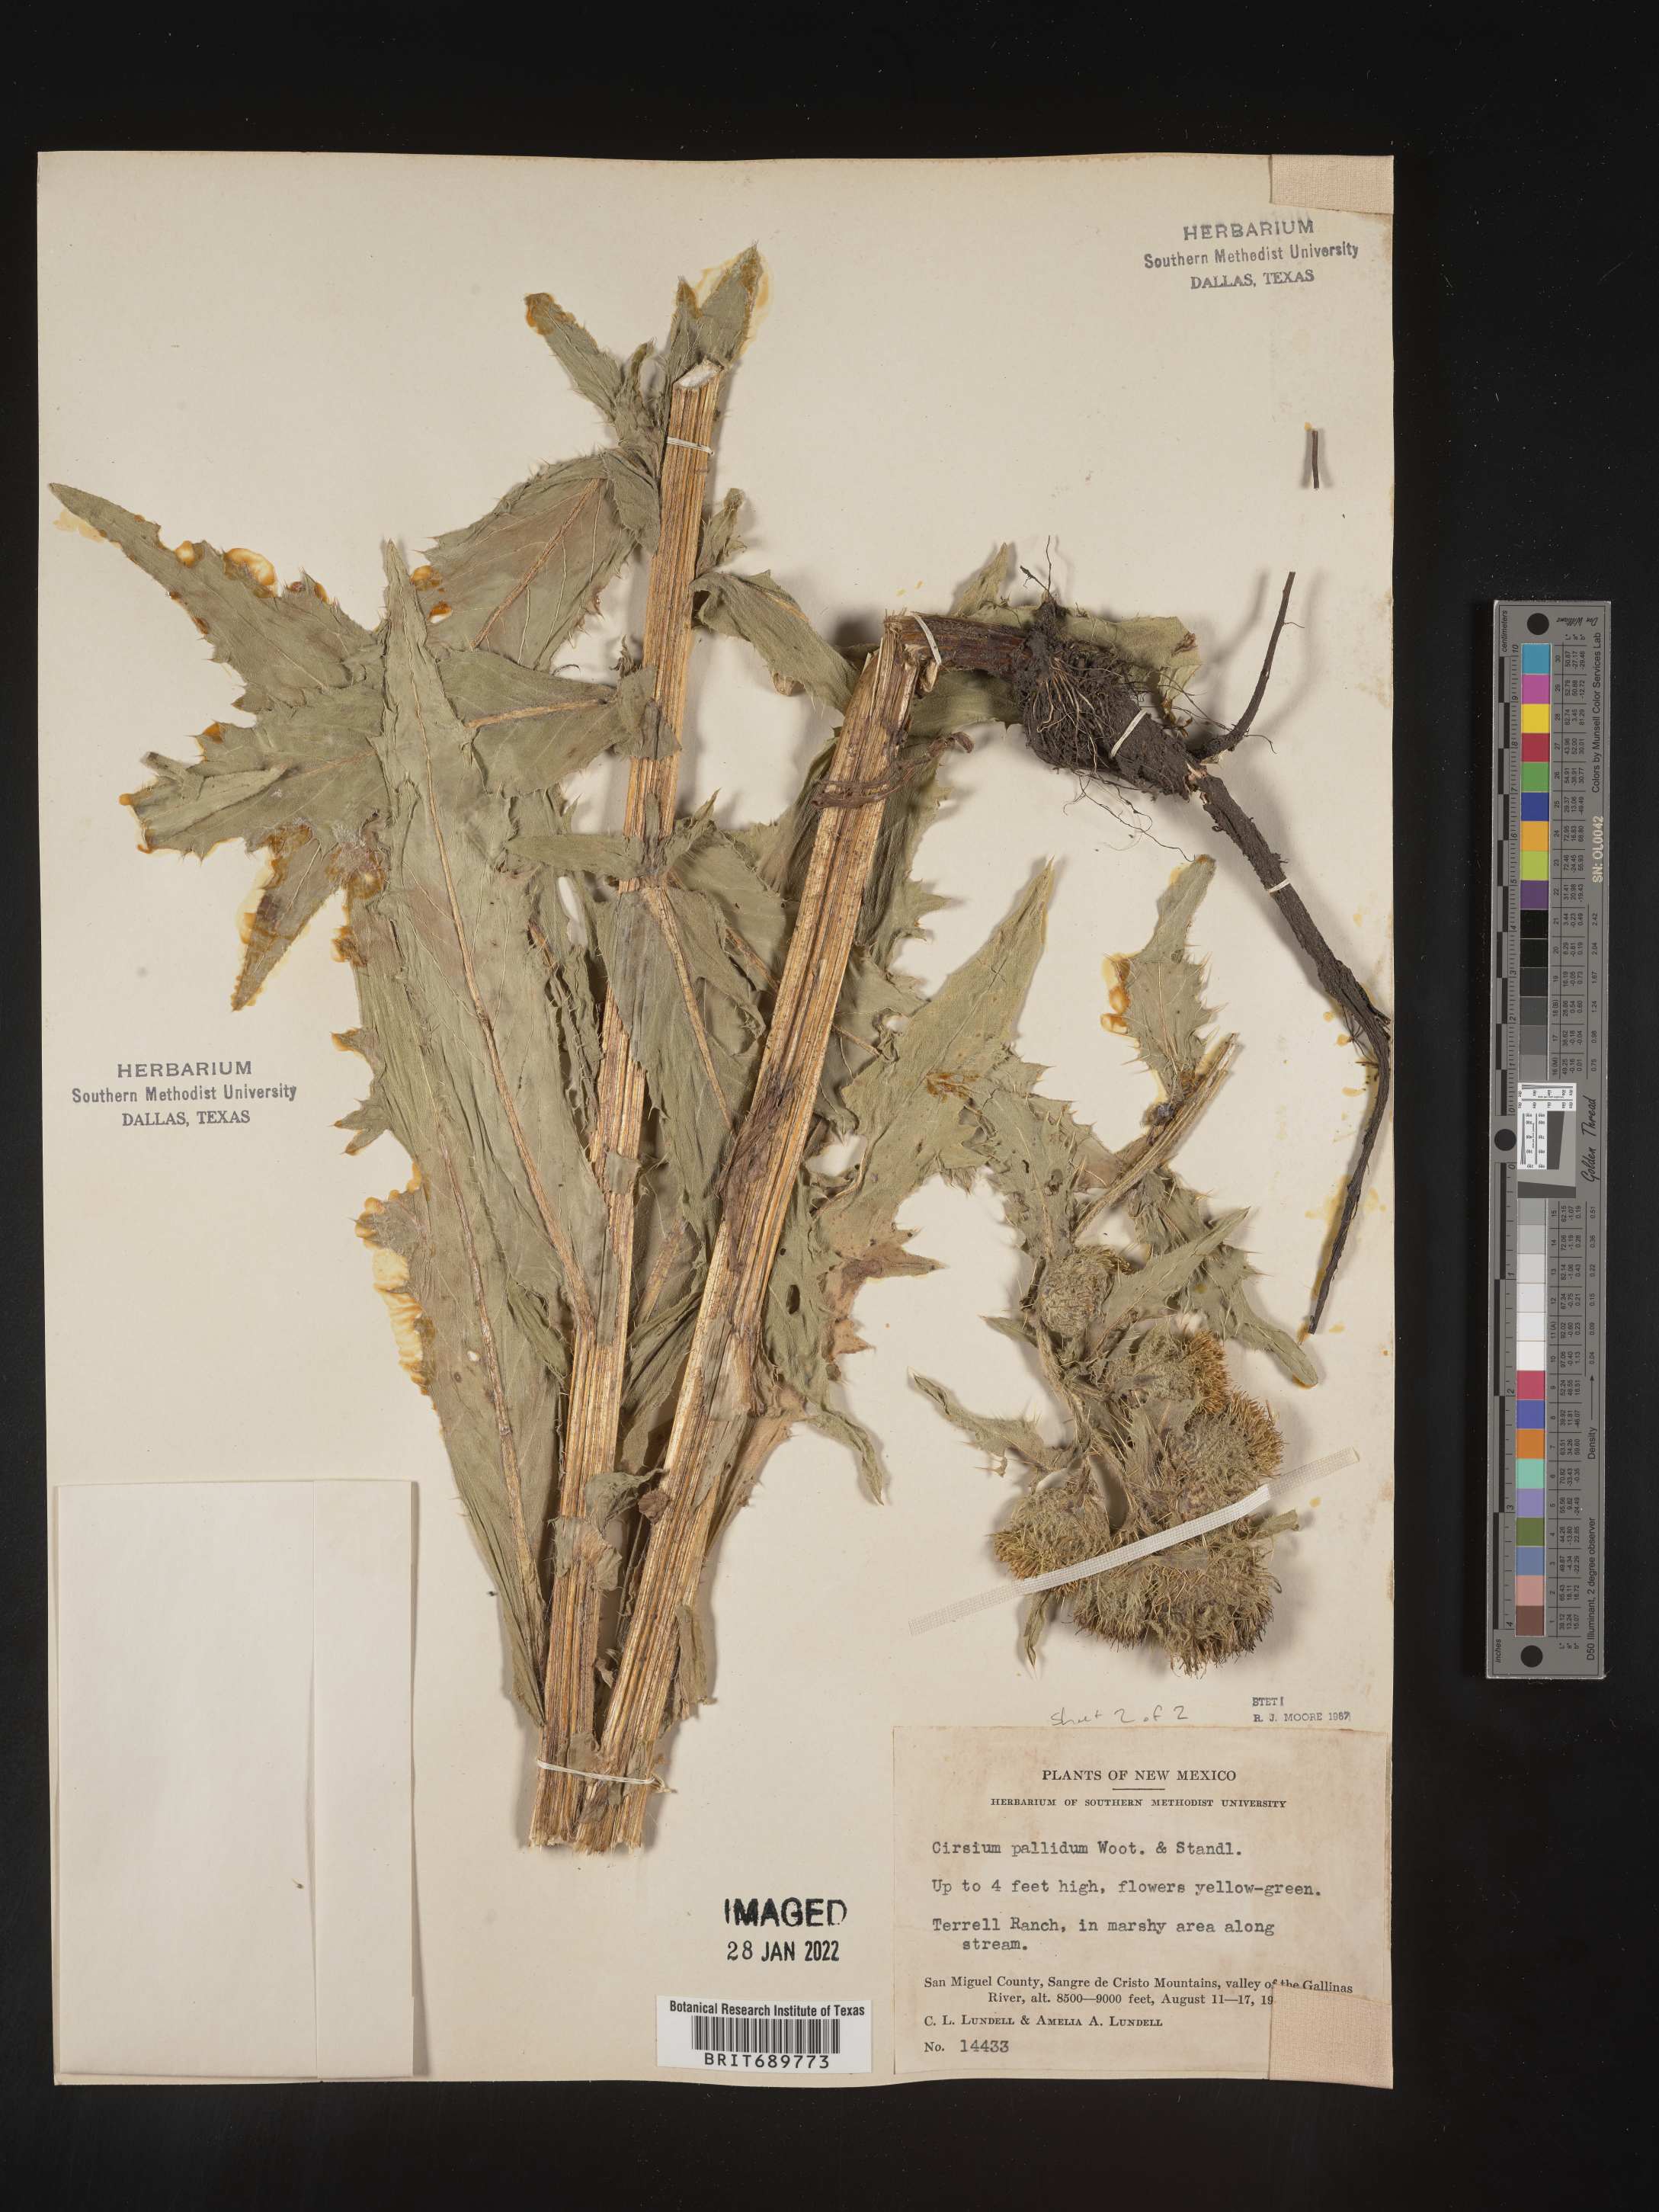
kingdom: Plantae
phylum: Tracheophyta
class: Magnoliopsida
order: Asterales
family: Asteraceae
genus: Cirsium
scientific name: Cirsium parryi
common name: Parry's thistle
